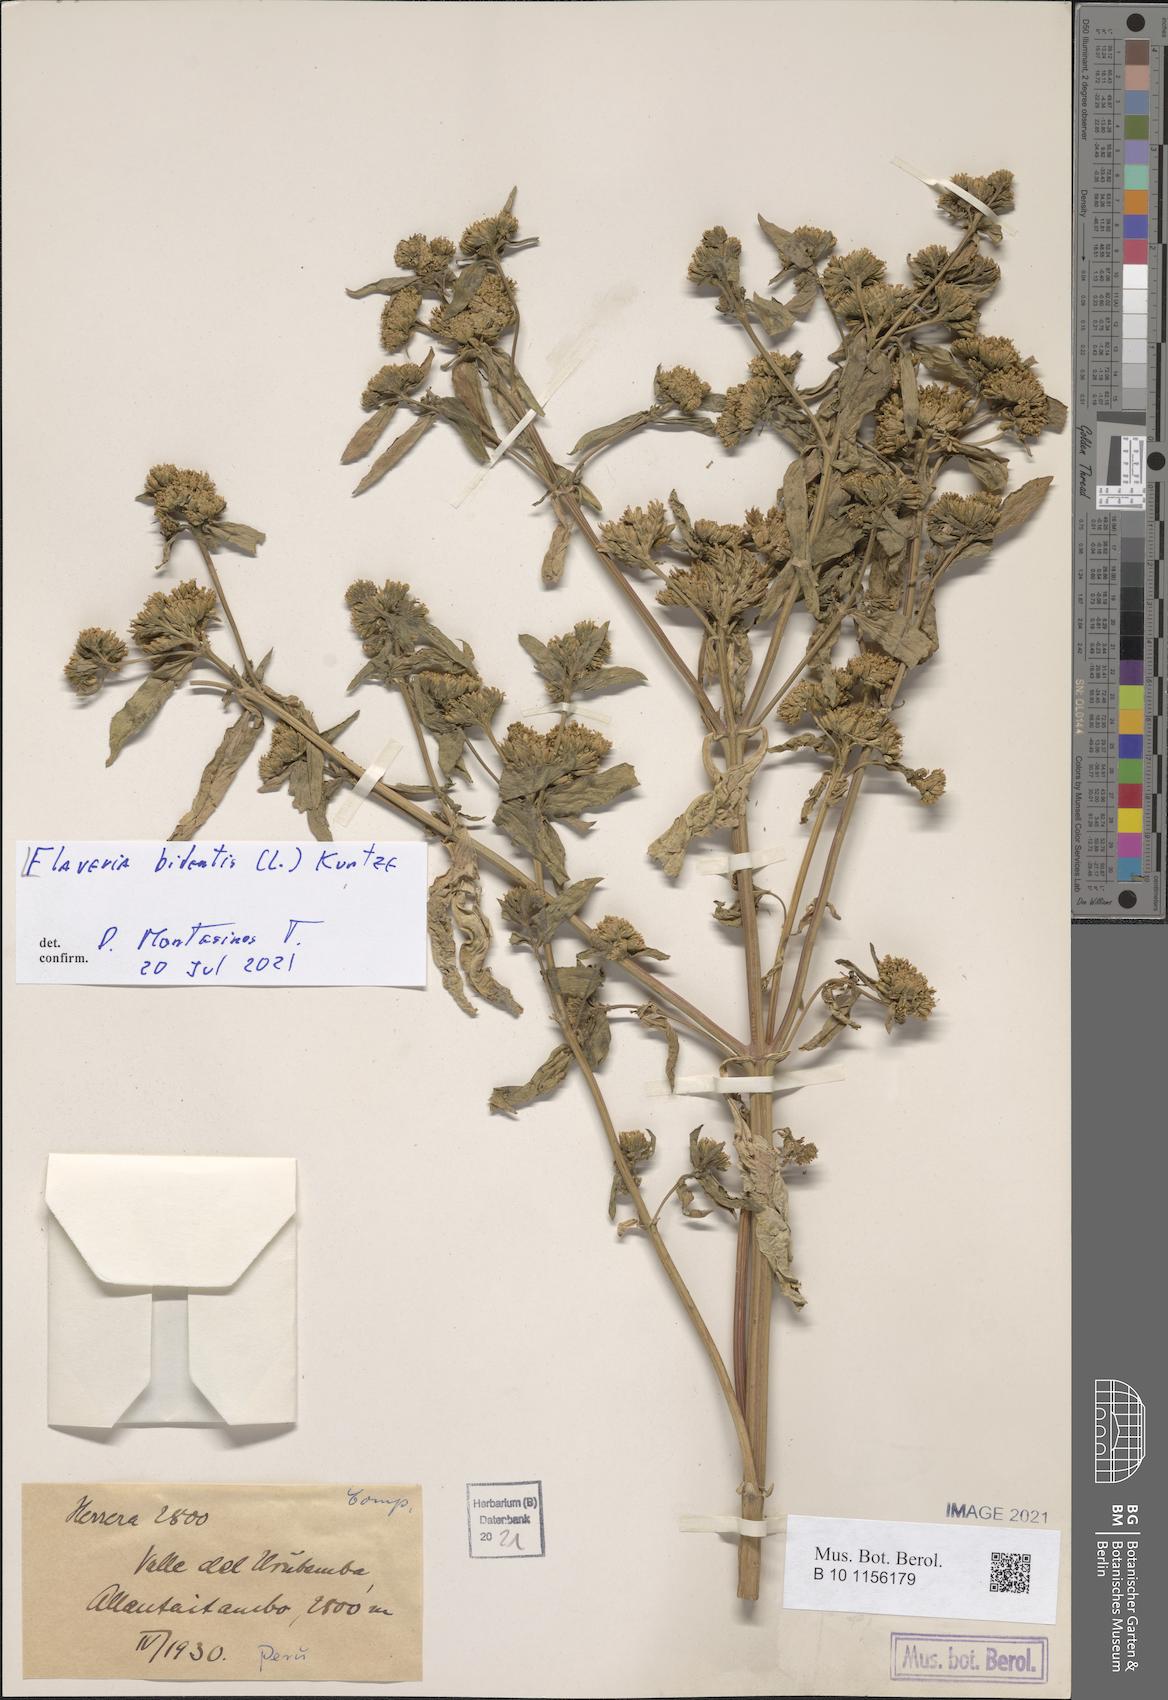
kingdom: Plantae
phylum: Tracheophyta
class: Magnoliopsida
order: Asterales
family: Asteraceae
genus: Flaveria
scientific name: Flaveria bidentis
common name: Coastal plain yellowtops
